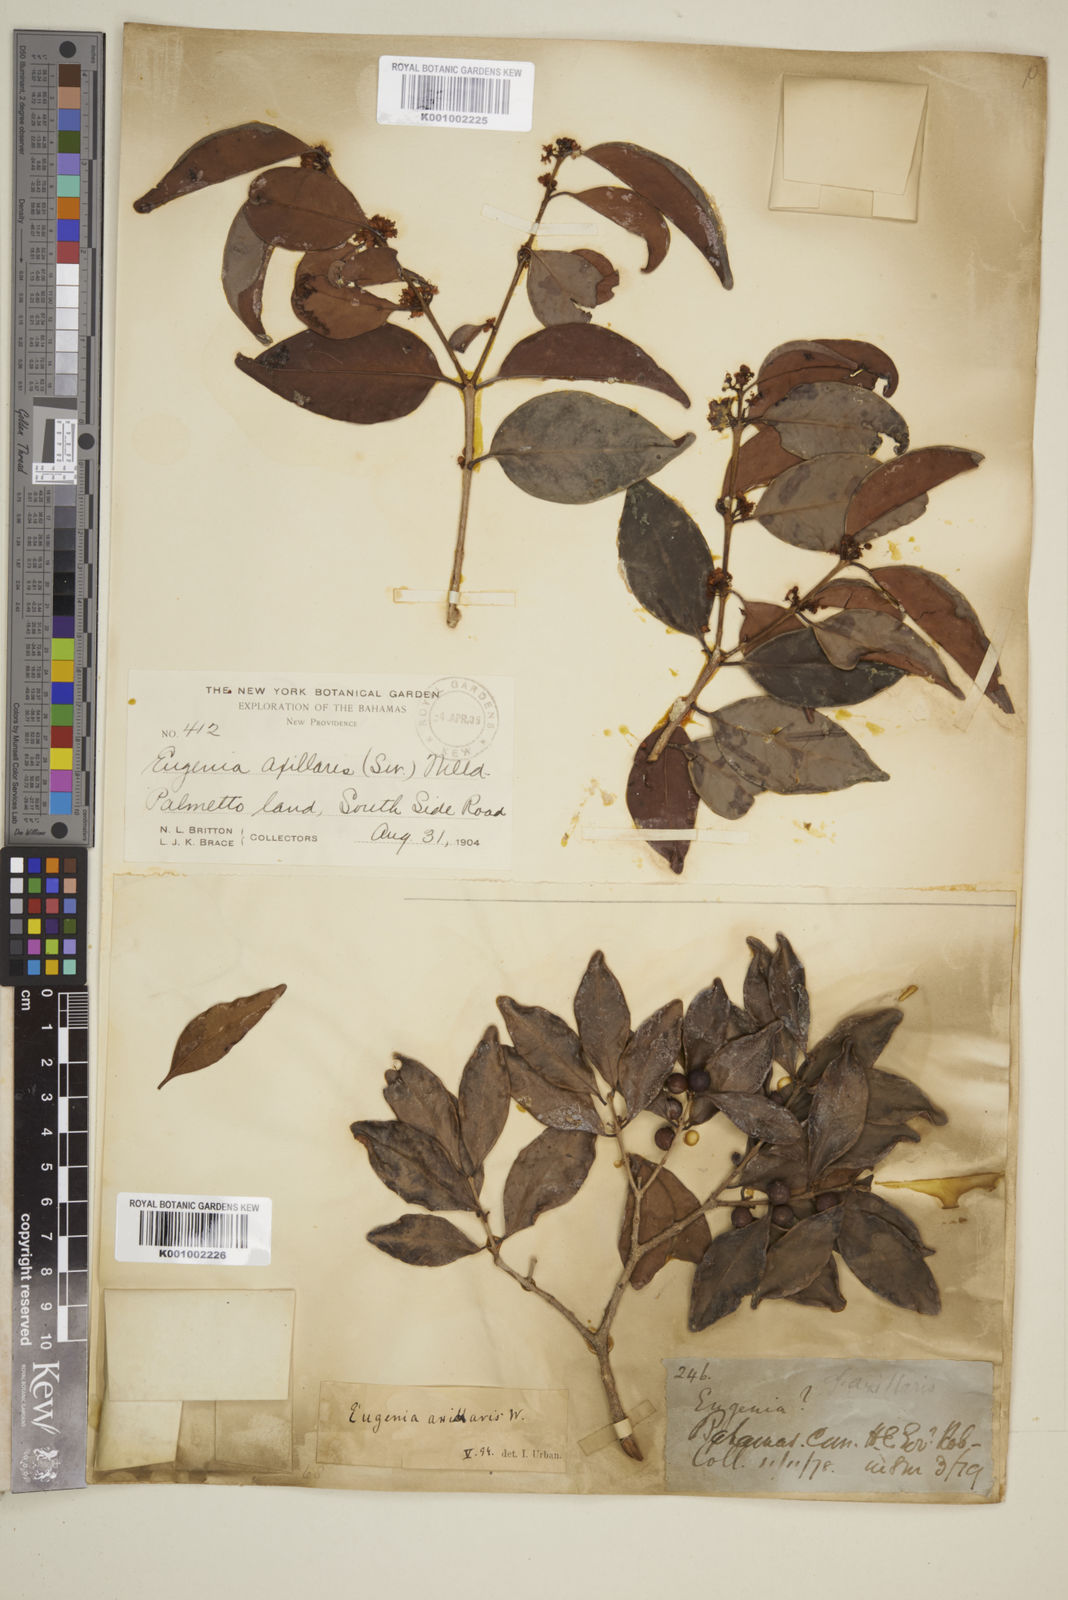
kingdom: Plantae
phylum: Tracheophyta
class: Magnoliopsida
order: Myrtales
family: Myrtaceae
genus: Eugenia
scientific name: Eugenia axillaris
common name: Choaky berry
